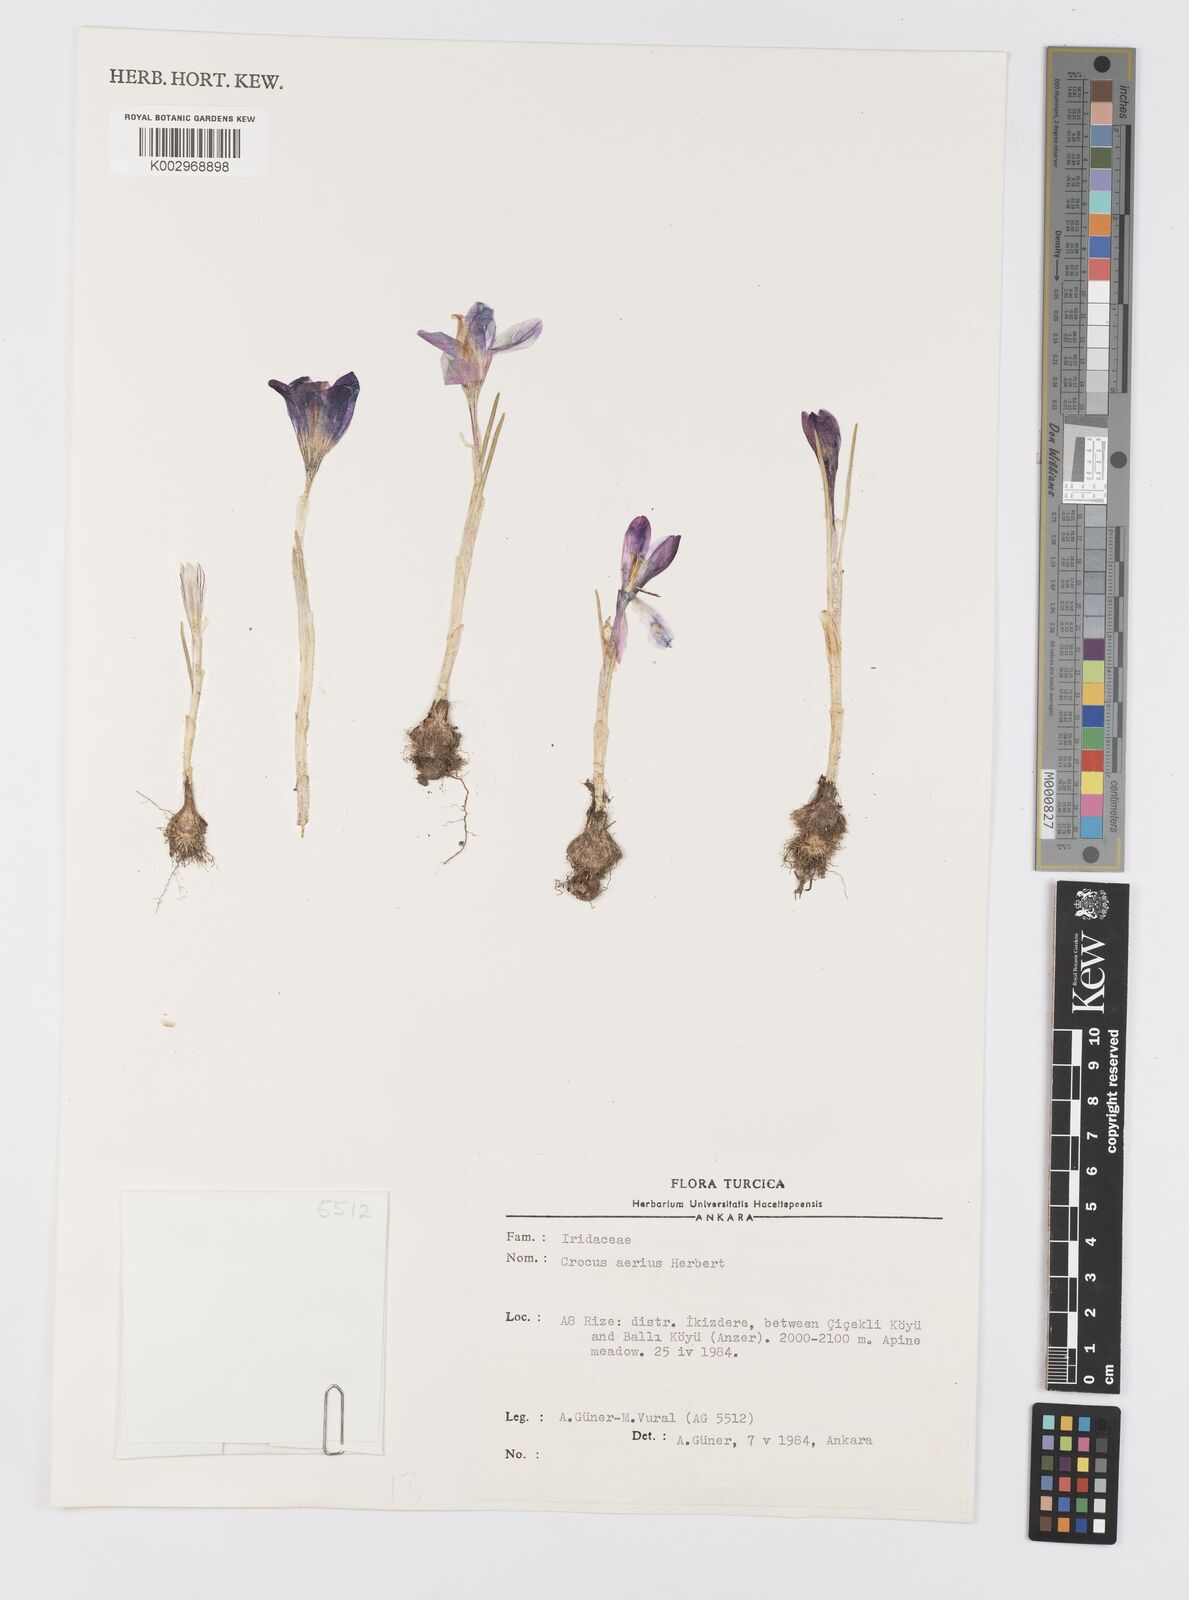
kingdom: Plantae
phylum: Tracheophyta
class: Liliopsida
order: Asparagales
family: Iridaceae
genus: Crocus
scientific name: Crocus aerius
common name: Aerial crocus
